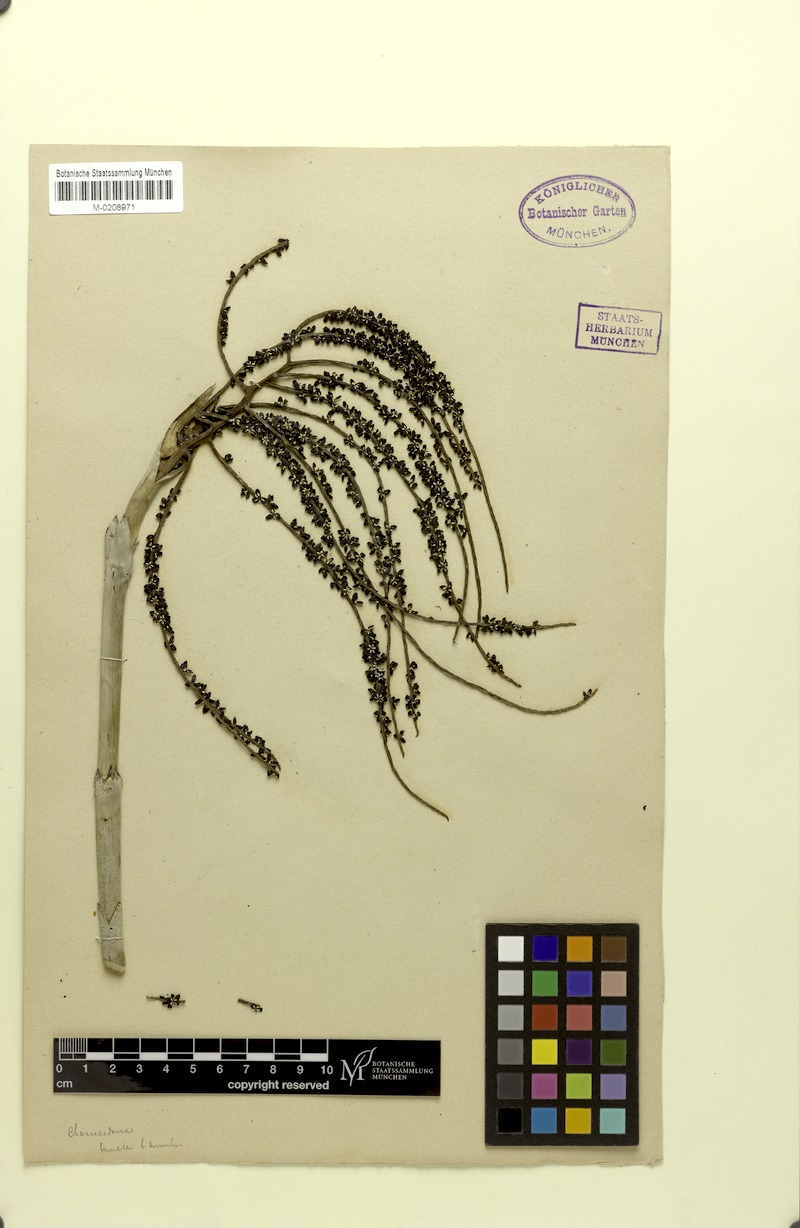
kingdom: Plantae
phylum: Tracheophyta
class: Liliopsida
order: Arecales
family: Arecaceae
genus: Chamaedorea
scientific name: Chamaedorea oblongata
